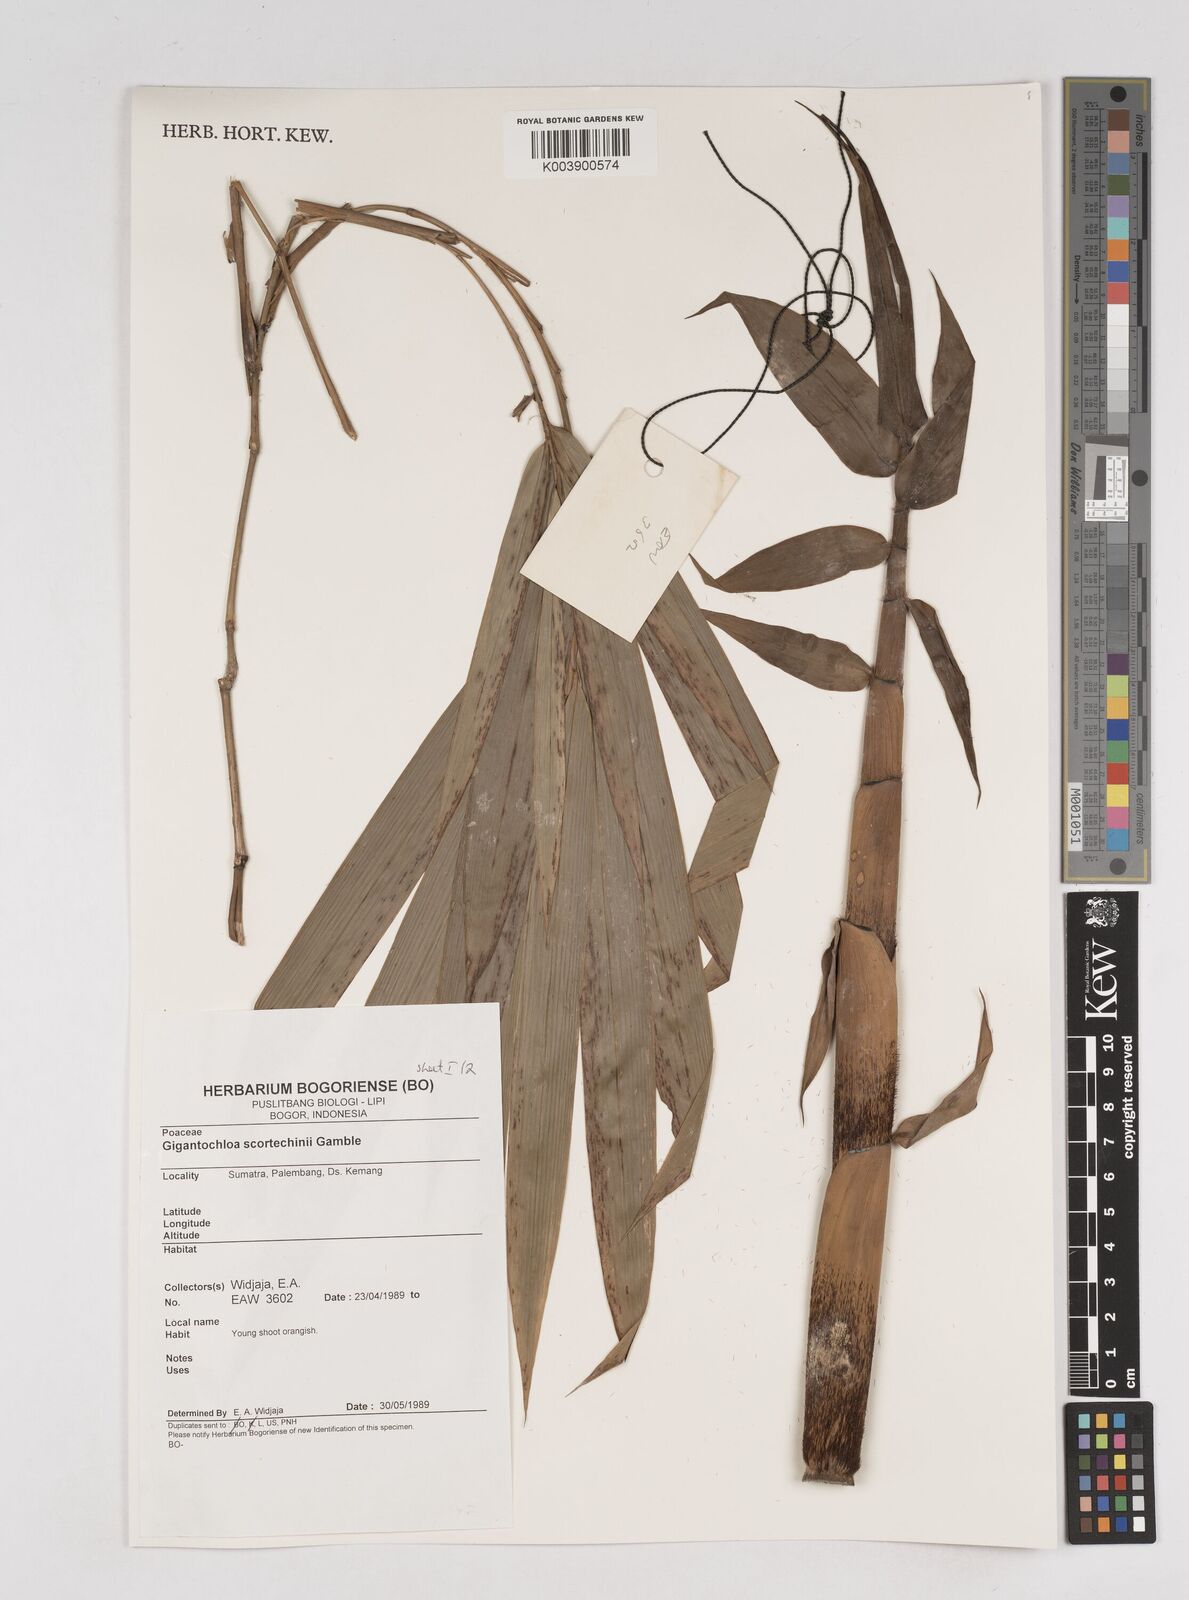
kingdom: Plantae
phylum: Tracheophyta
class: Liliopsida
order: Poales
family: Poaceae
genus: Gigantochloa
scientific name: Gigantochloa scortechinii
